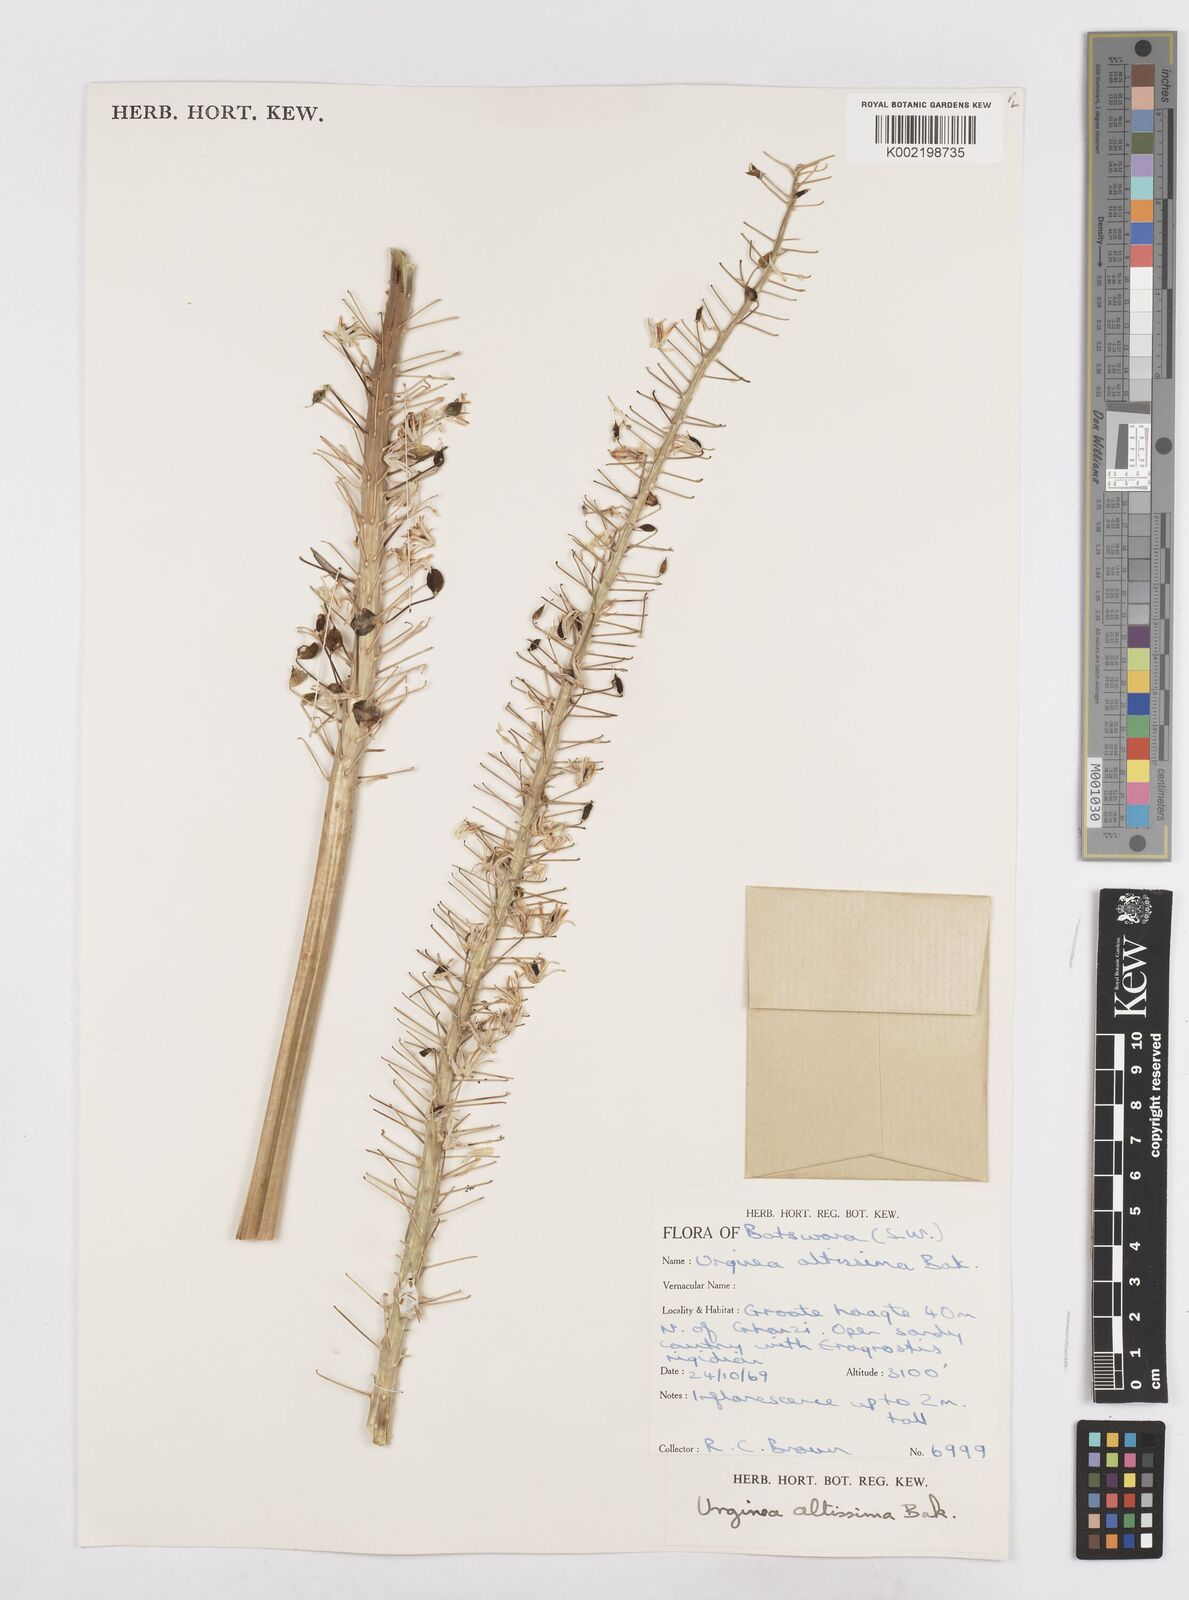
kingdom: Plantae
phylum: Tracheophyta
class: Liliopsida
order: Asparagales
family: Asparagaceae
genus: Drimia
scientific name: Drimia altissima
